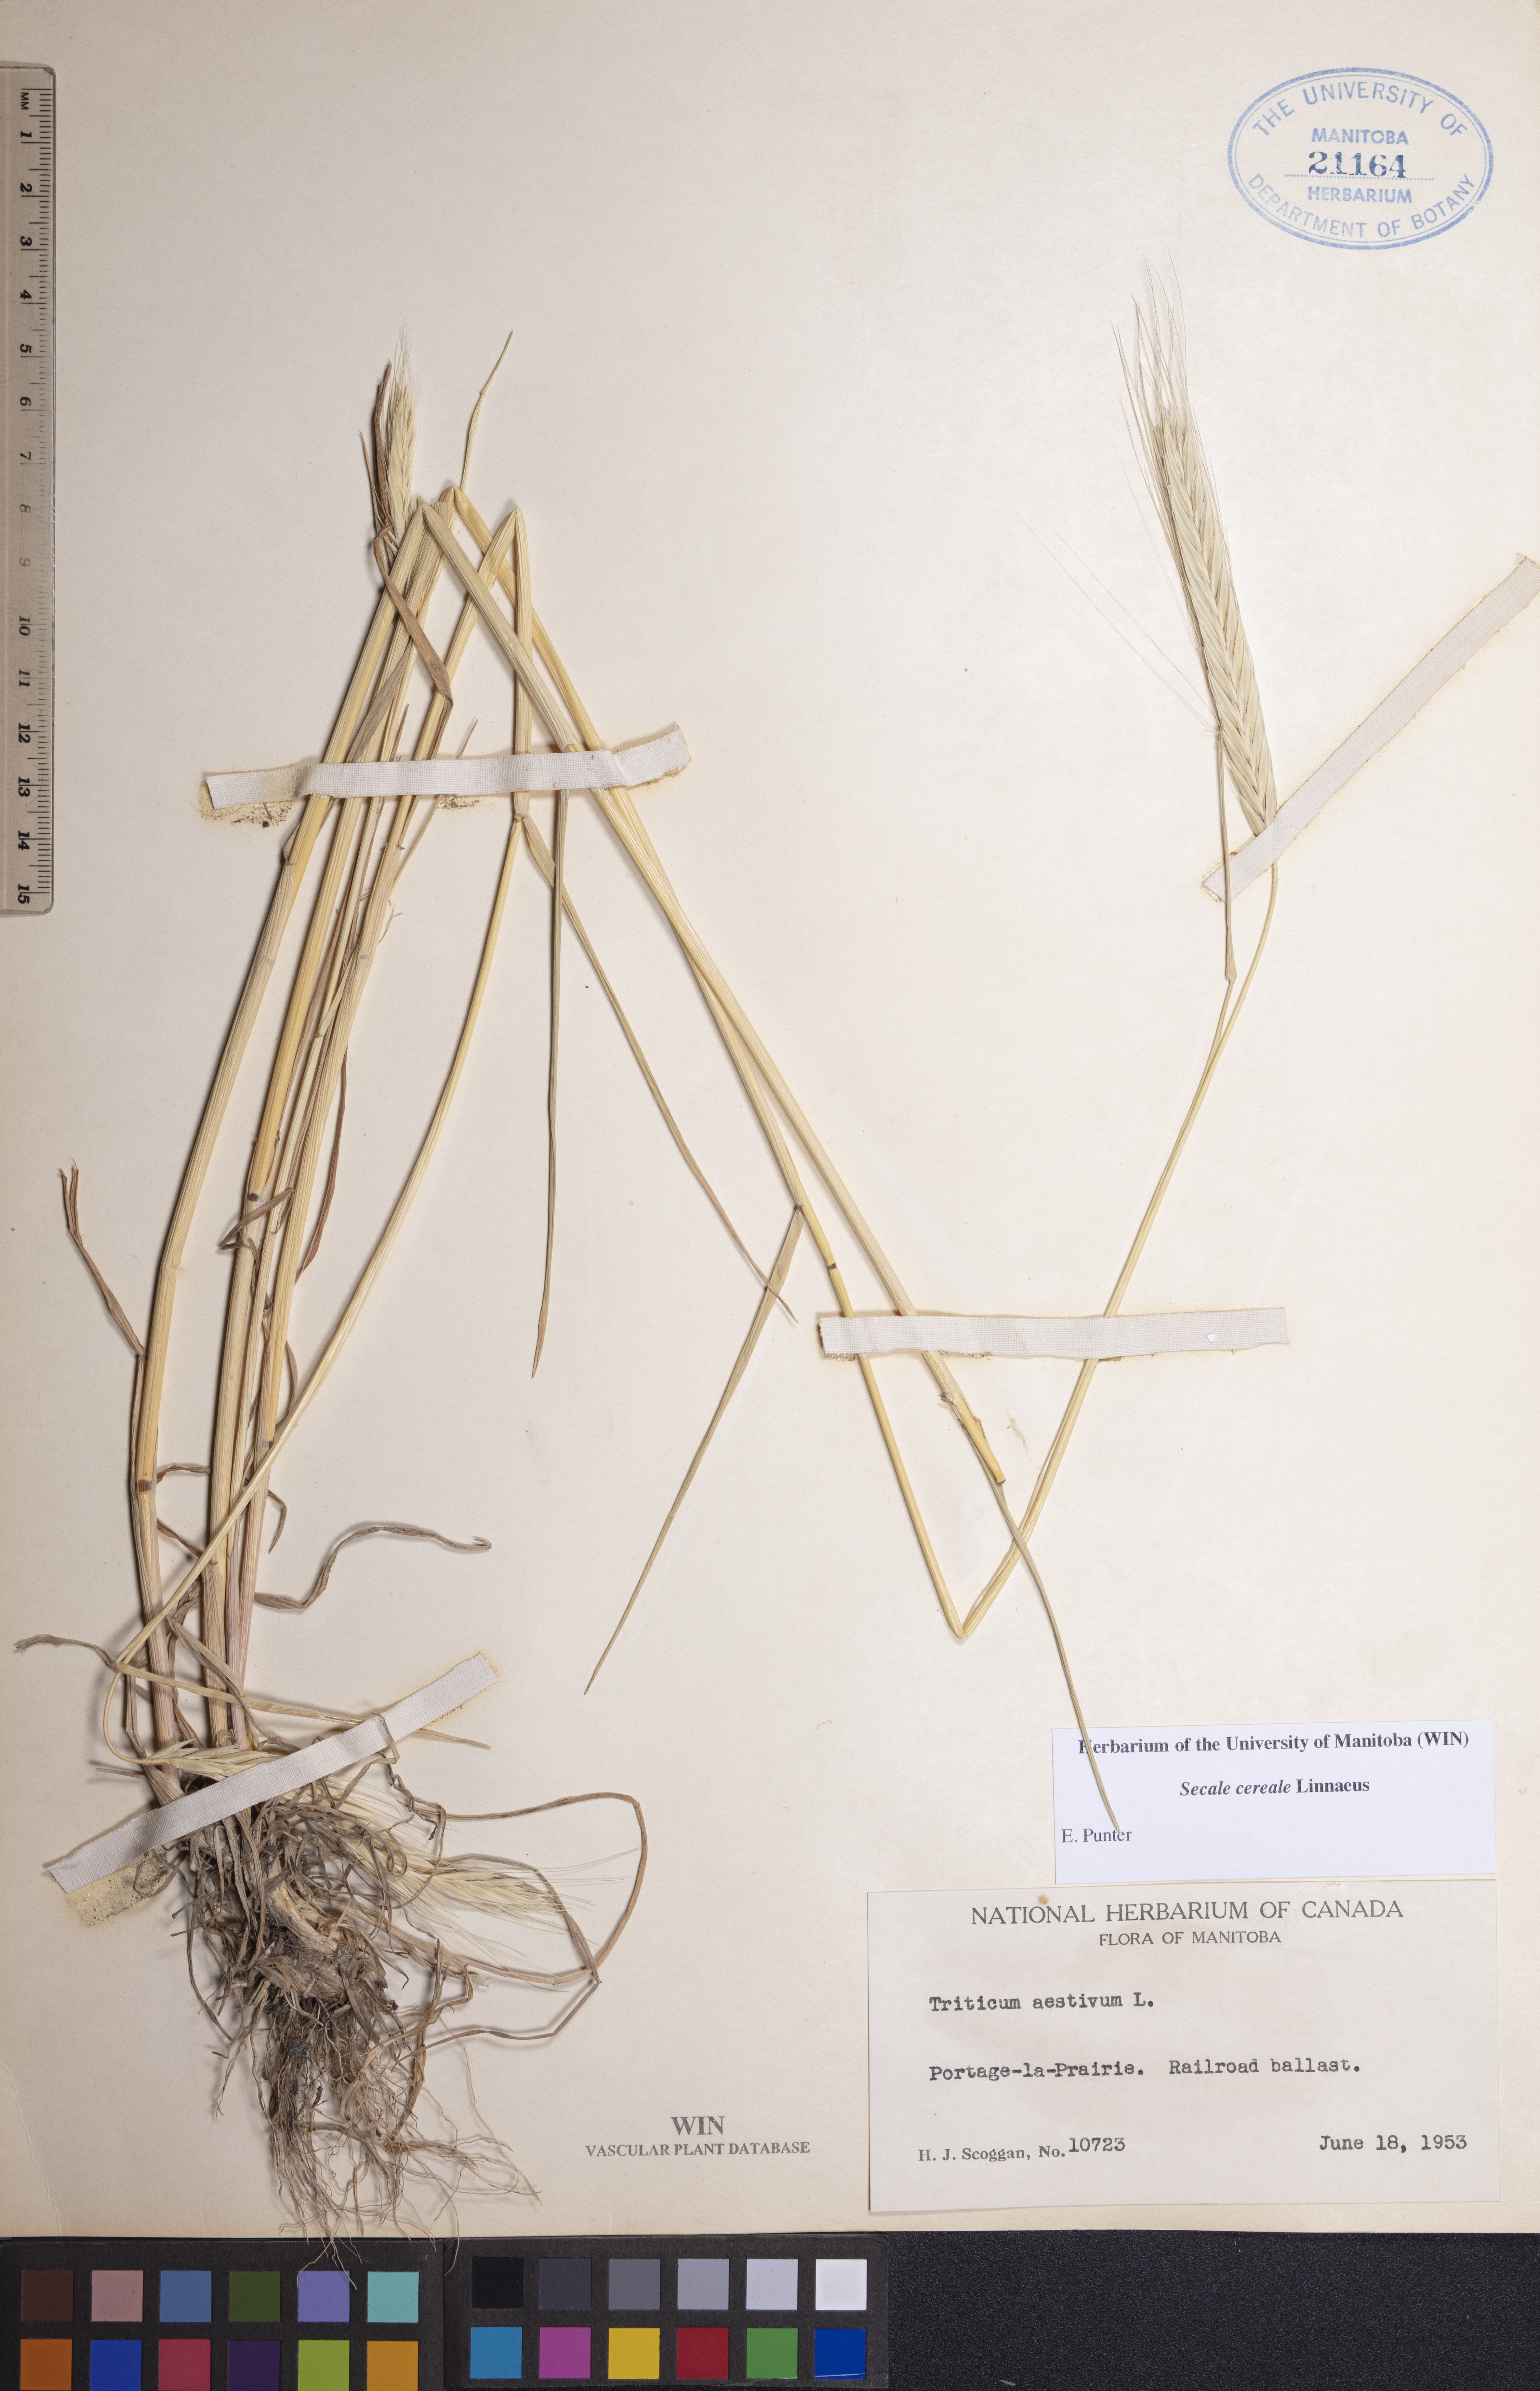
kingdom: Plantae
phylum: Tracheophyta
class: Liliopsida
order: Poales
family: Poaceae
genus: Secale
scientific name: Secale cereale
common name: Rye
